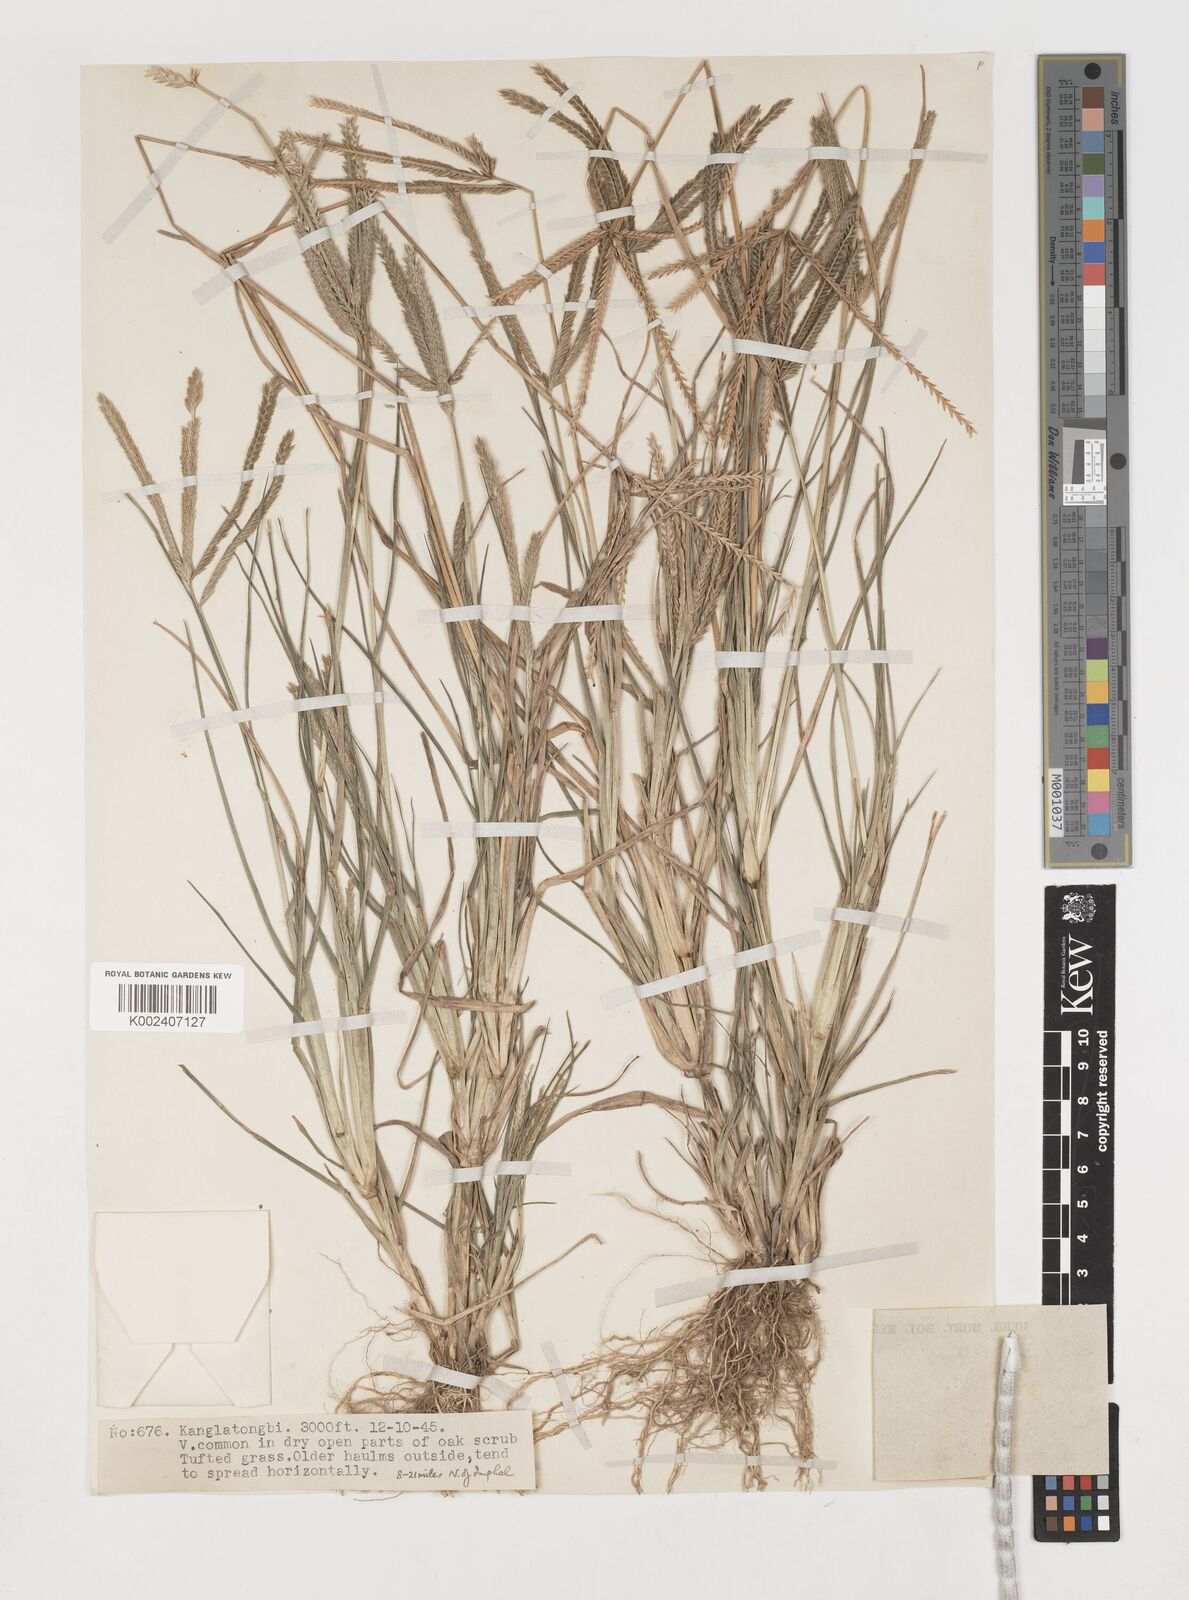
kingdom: Plantae
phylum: Tracheophyta
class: Liliopsida
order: Poales
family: Poaceae
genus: Eleusine
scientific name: Eleusine indica
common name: Yard-grass
